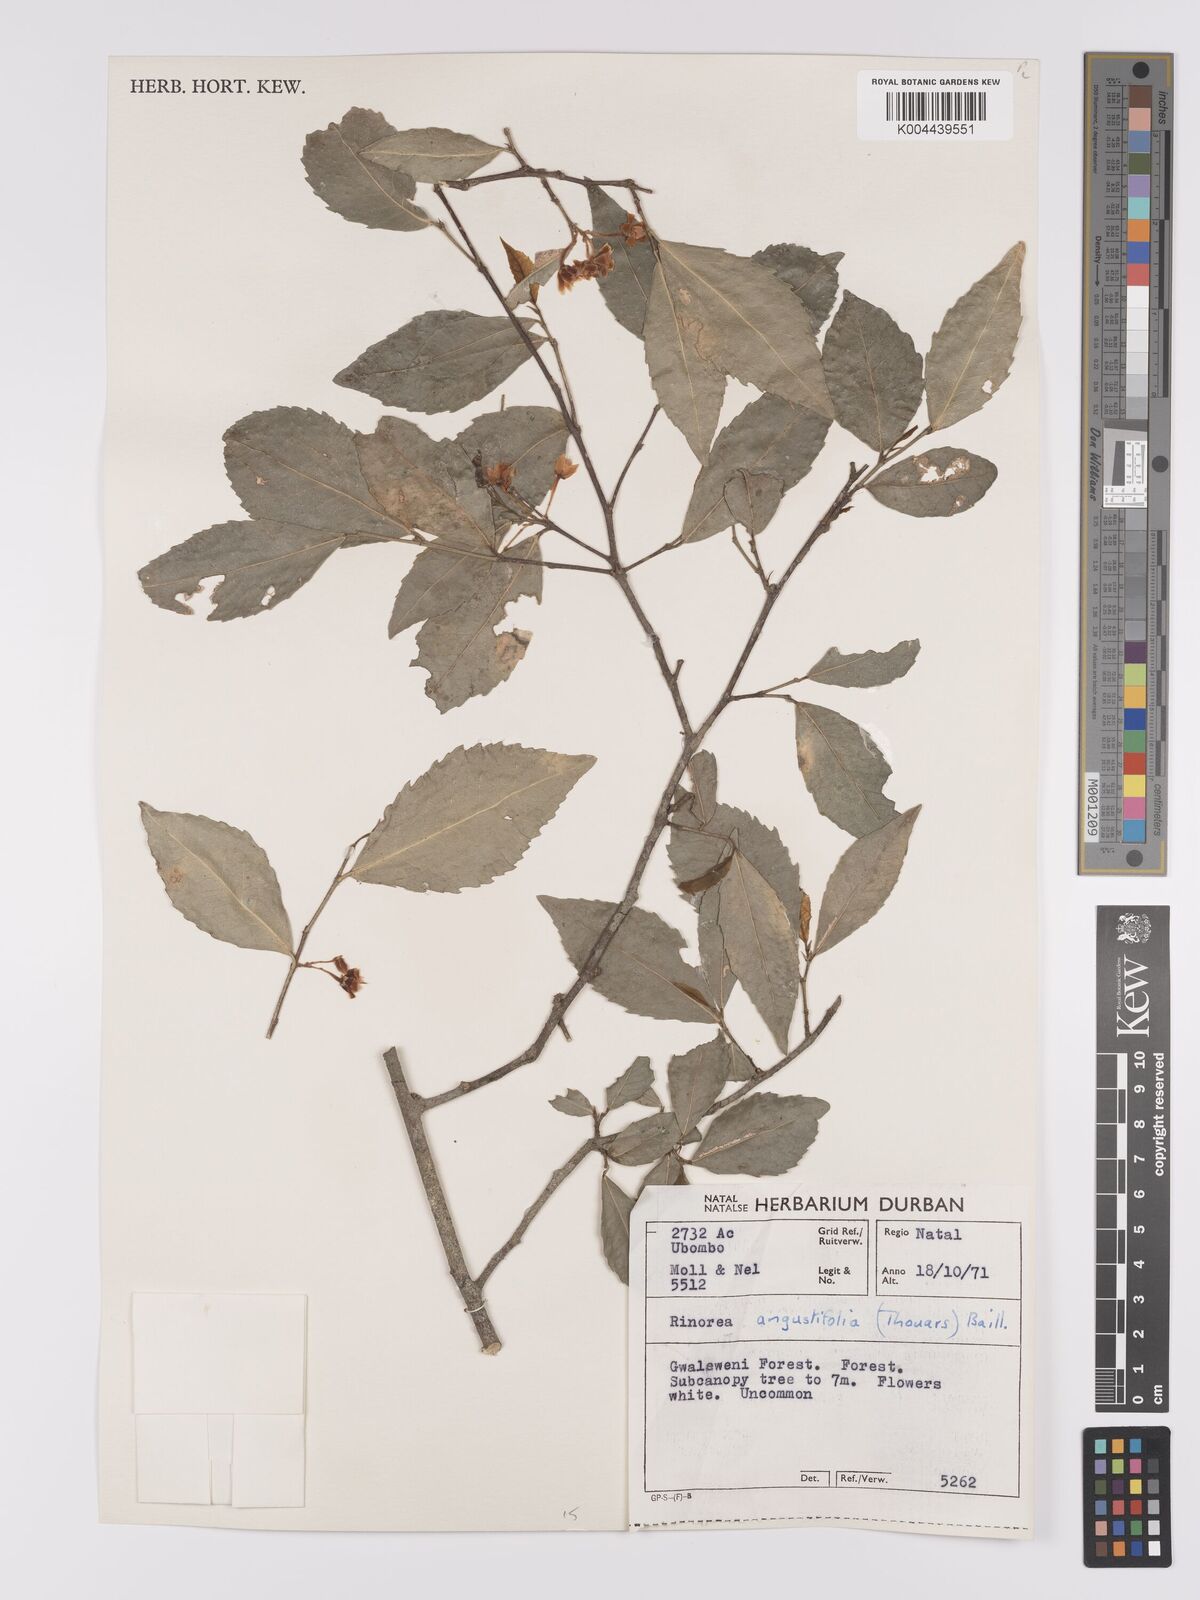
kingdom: Plantae
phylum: Tracheophyta
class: Magnoliopsida
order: Malpighiales
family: Violaceae
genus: Rinorea
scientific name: Rinorea angustifolia
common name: White violet-bush
